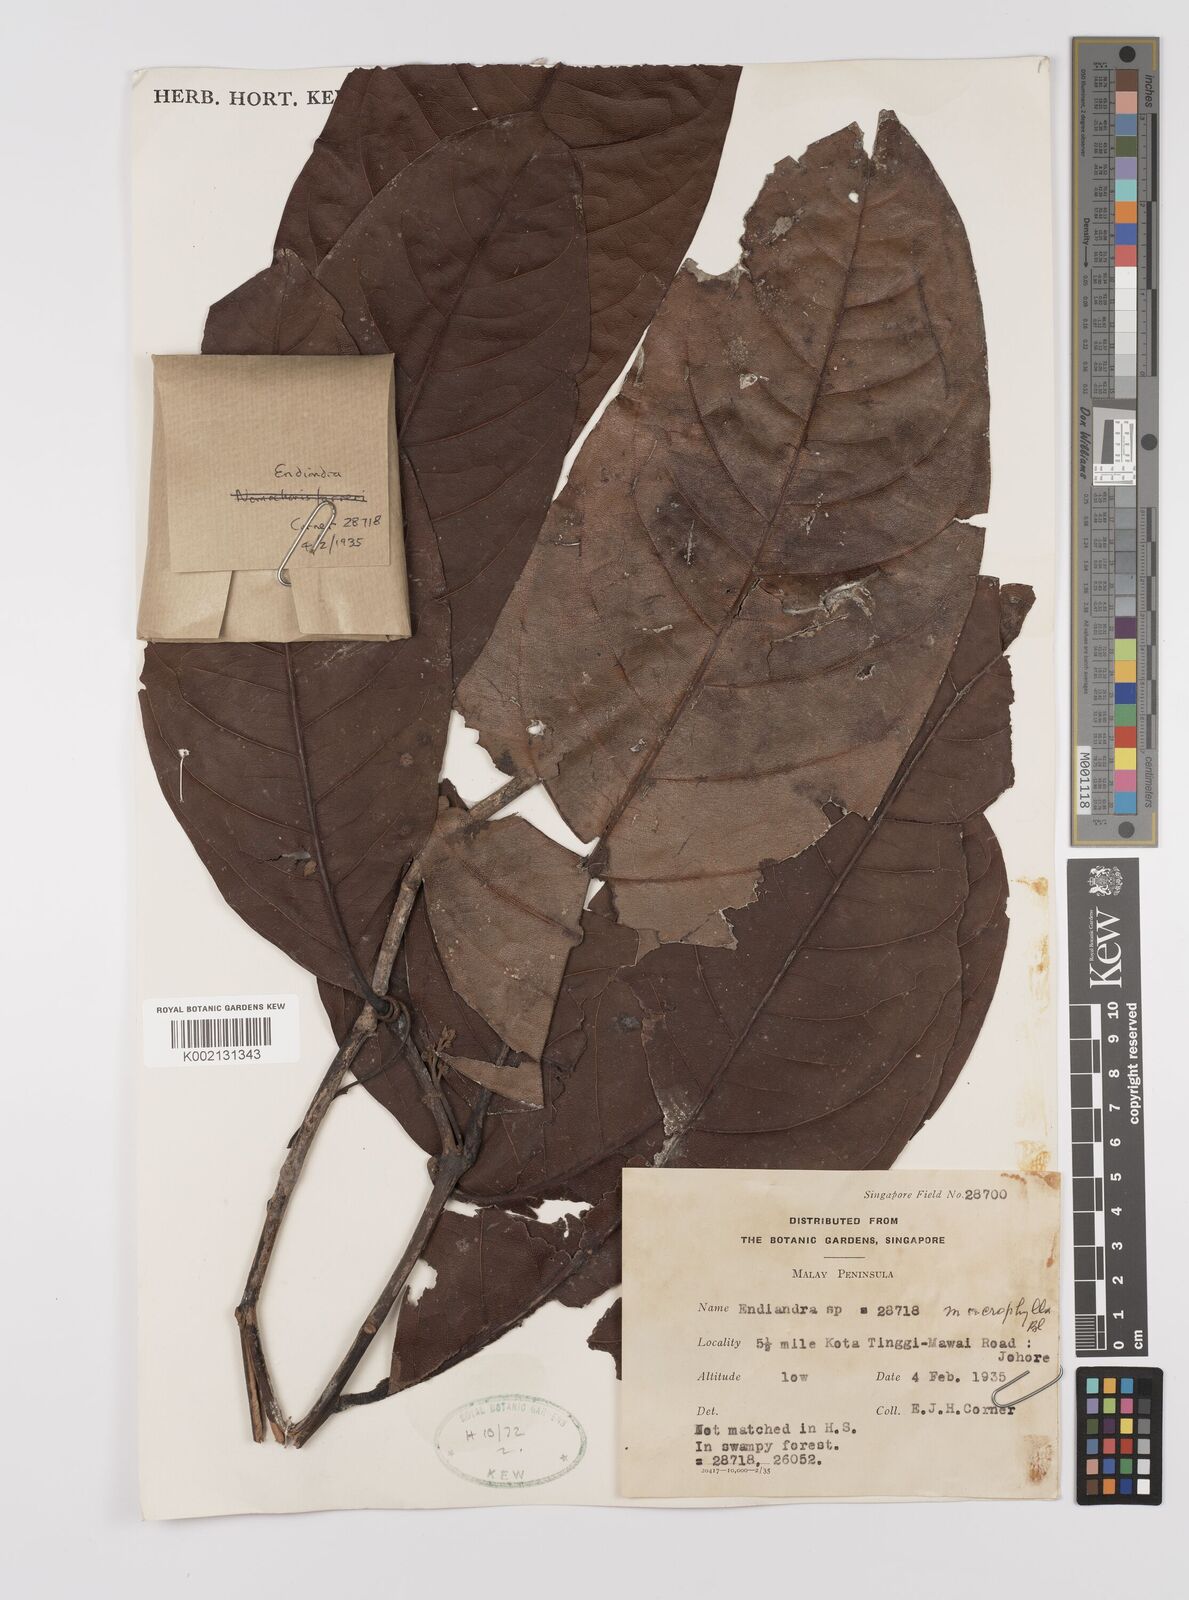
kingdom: Plantae
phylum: Tracheophyta
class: Magnoliopsida
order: Laurales
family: Lauraceae
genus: Endiandra
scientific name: Endiandra macrophylla
